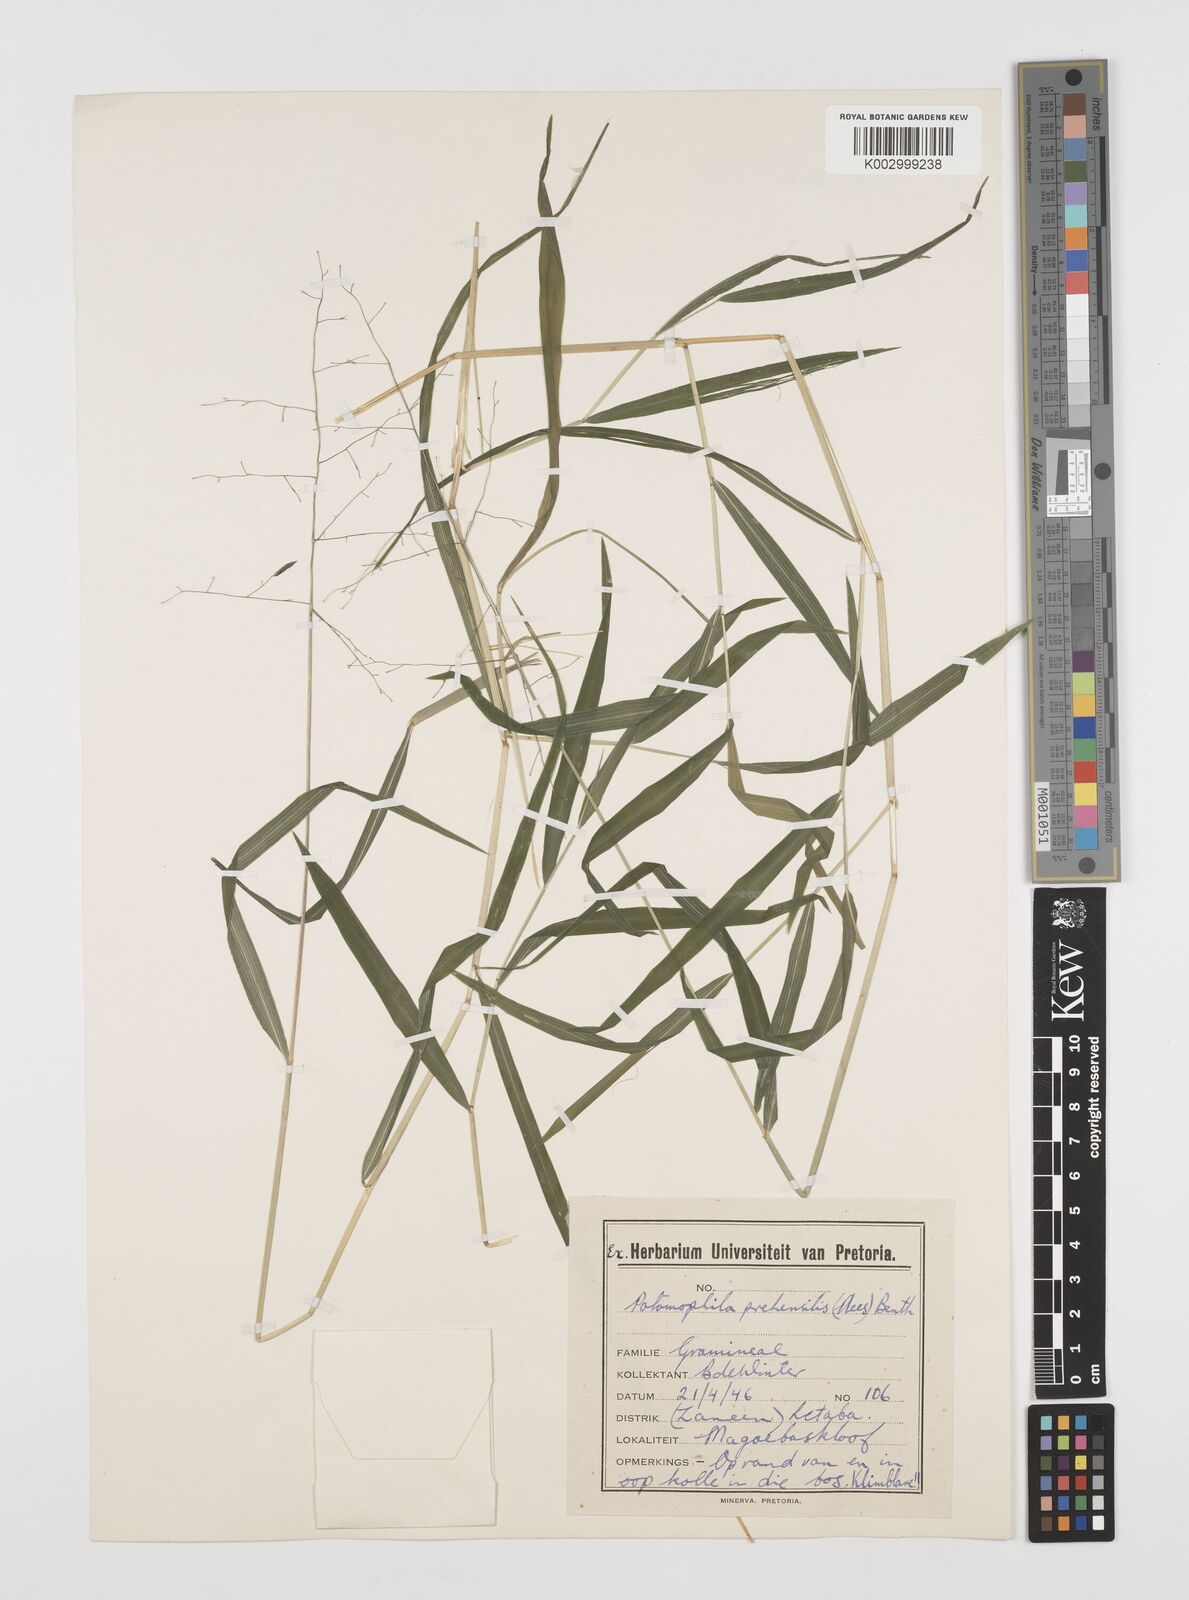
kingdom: Plantae
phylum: Tracheophyta
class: Liliopsida
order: Poales
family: Poaceae
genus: Prosphytochloa
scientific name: Prosphytochloa prehensilis
